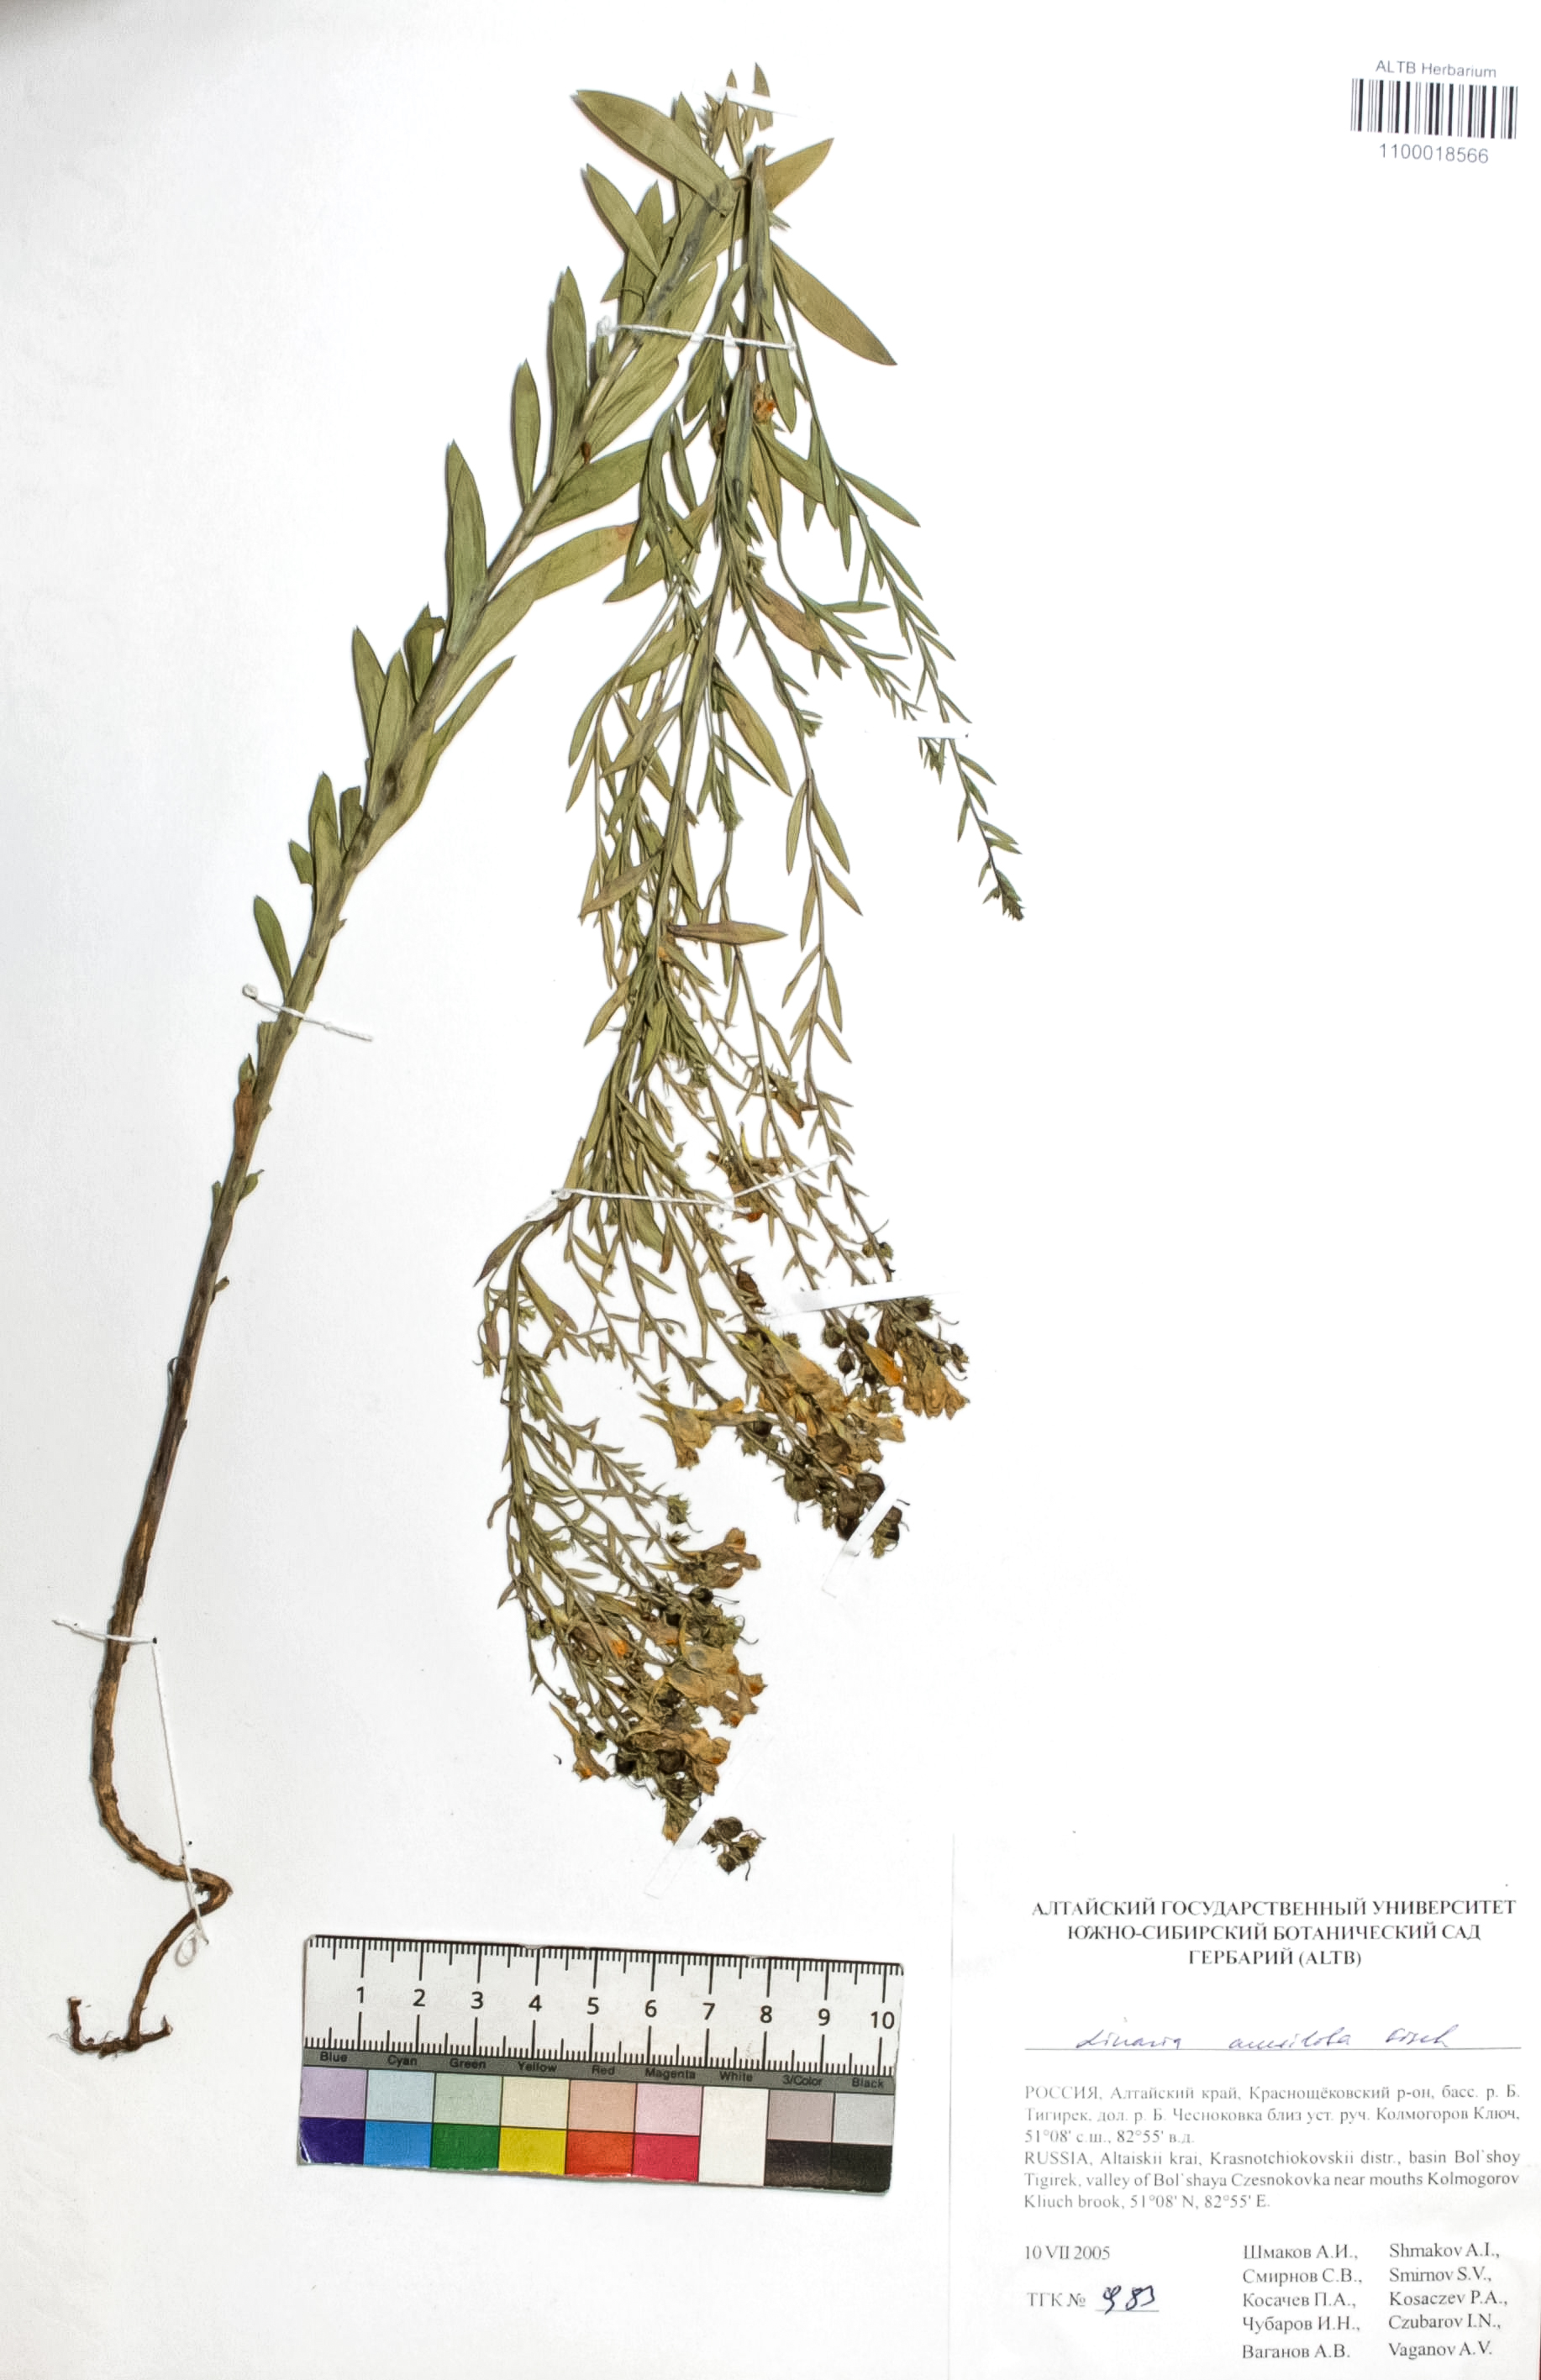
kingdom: Plantae
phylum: Tracheophyta
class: Magnoliopsida
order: Lamiales
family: Plantaginaceae
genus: Linaria
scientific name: Linaria acutiloba
